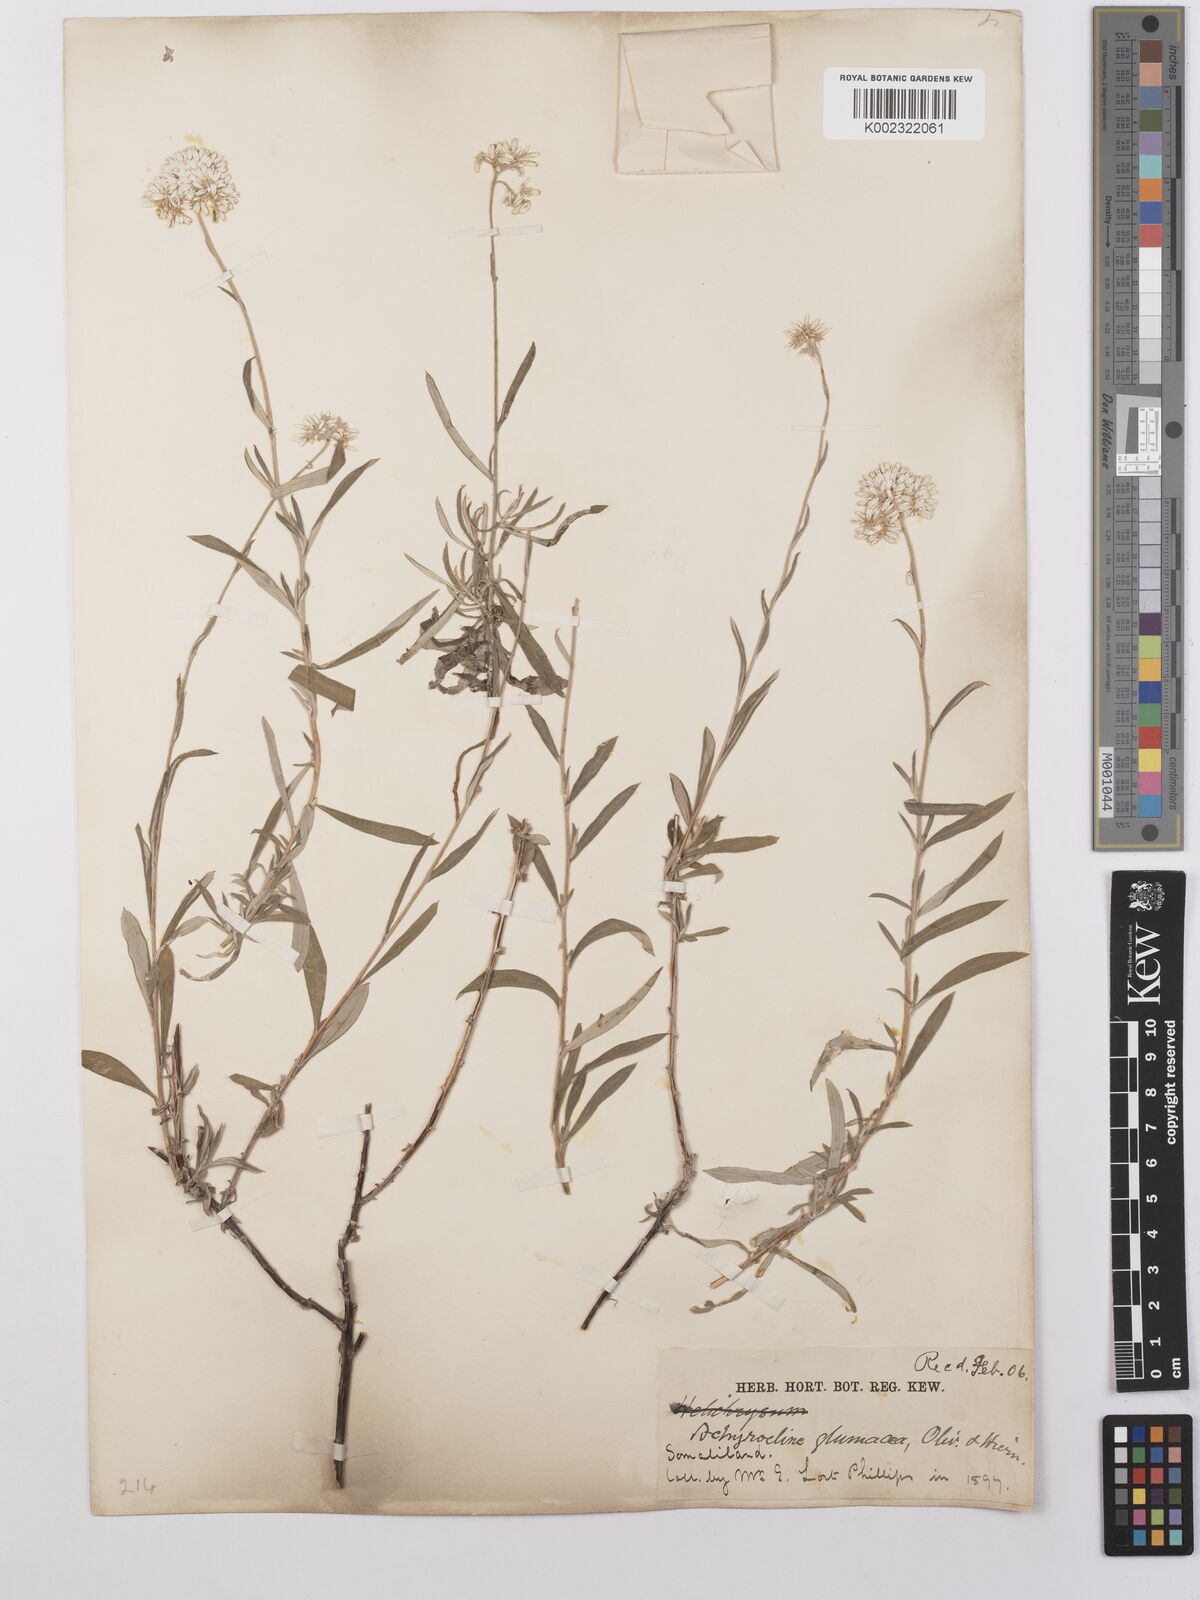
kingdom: Plantae
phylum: Tracheophyta
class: Magnoliopsida
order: Asterales
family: Asteraceae
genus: Helichrysum
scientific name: Helichrysum glumaceum
